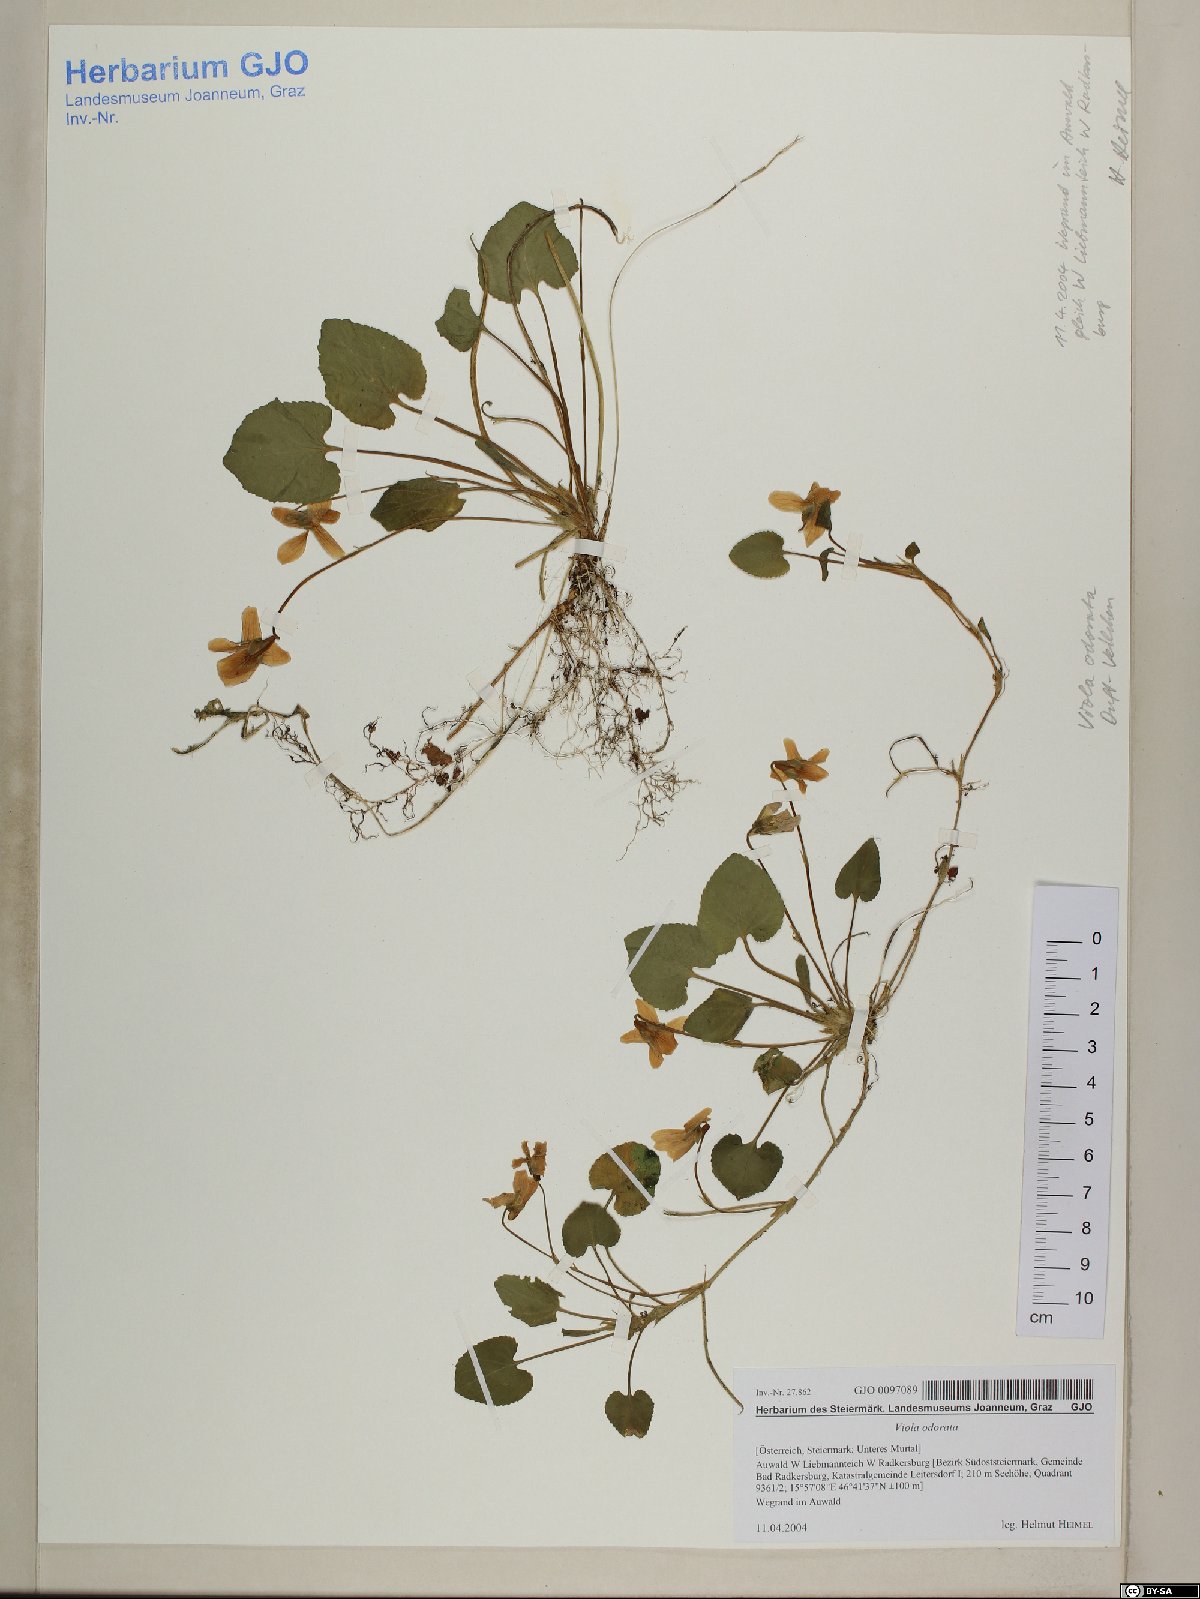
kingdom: Plantae
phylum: Tracheophyta
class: Magnoliopsida
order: Malpighiales
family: Violaceae
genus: Viola
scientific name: Viola odorata
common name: Sweet violet
